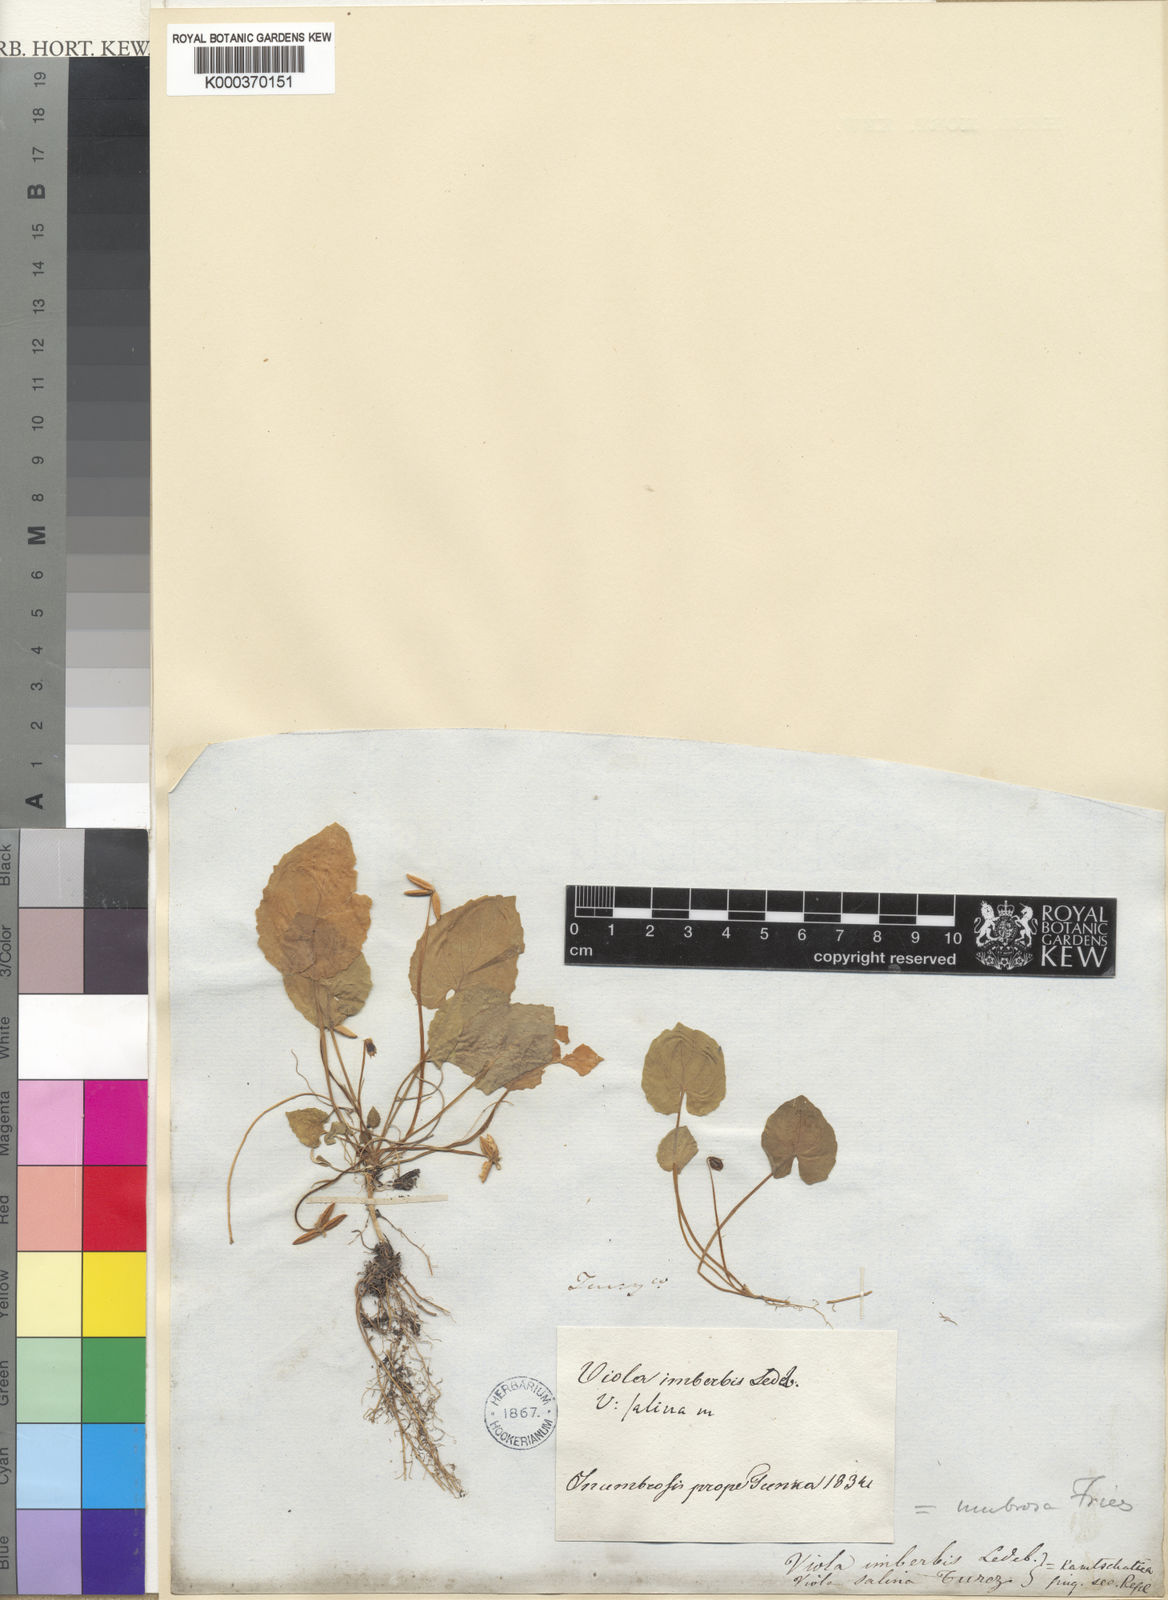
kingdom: Plantae
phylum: Tracheophyta
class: Magnoliopsida
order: Malpighiales
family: Violaceae
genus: Viola
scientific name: Viola selkirkii
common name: Selkirk's violet
